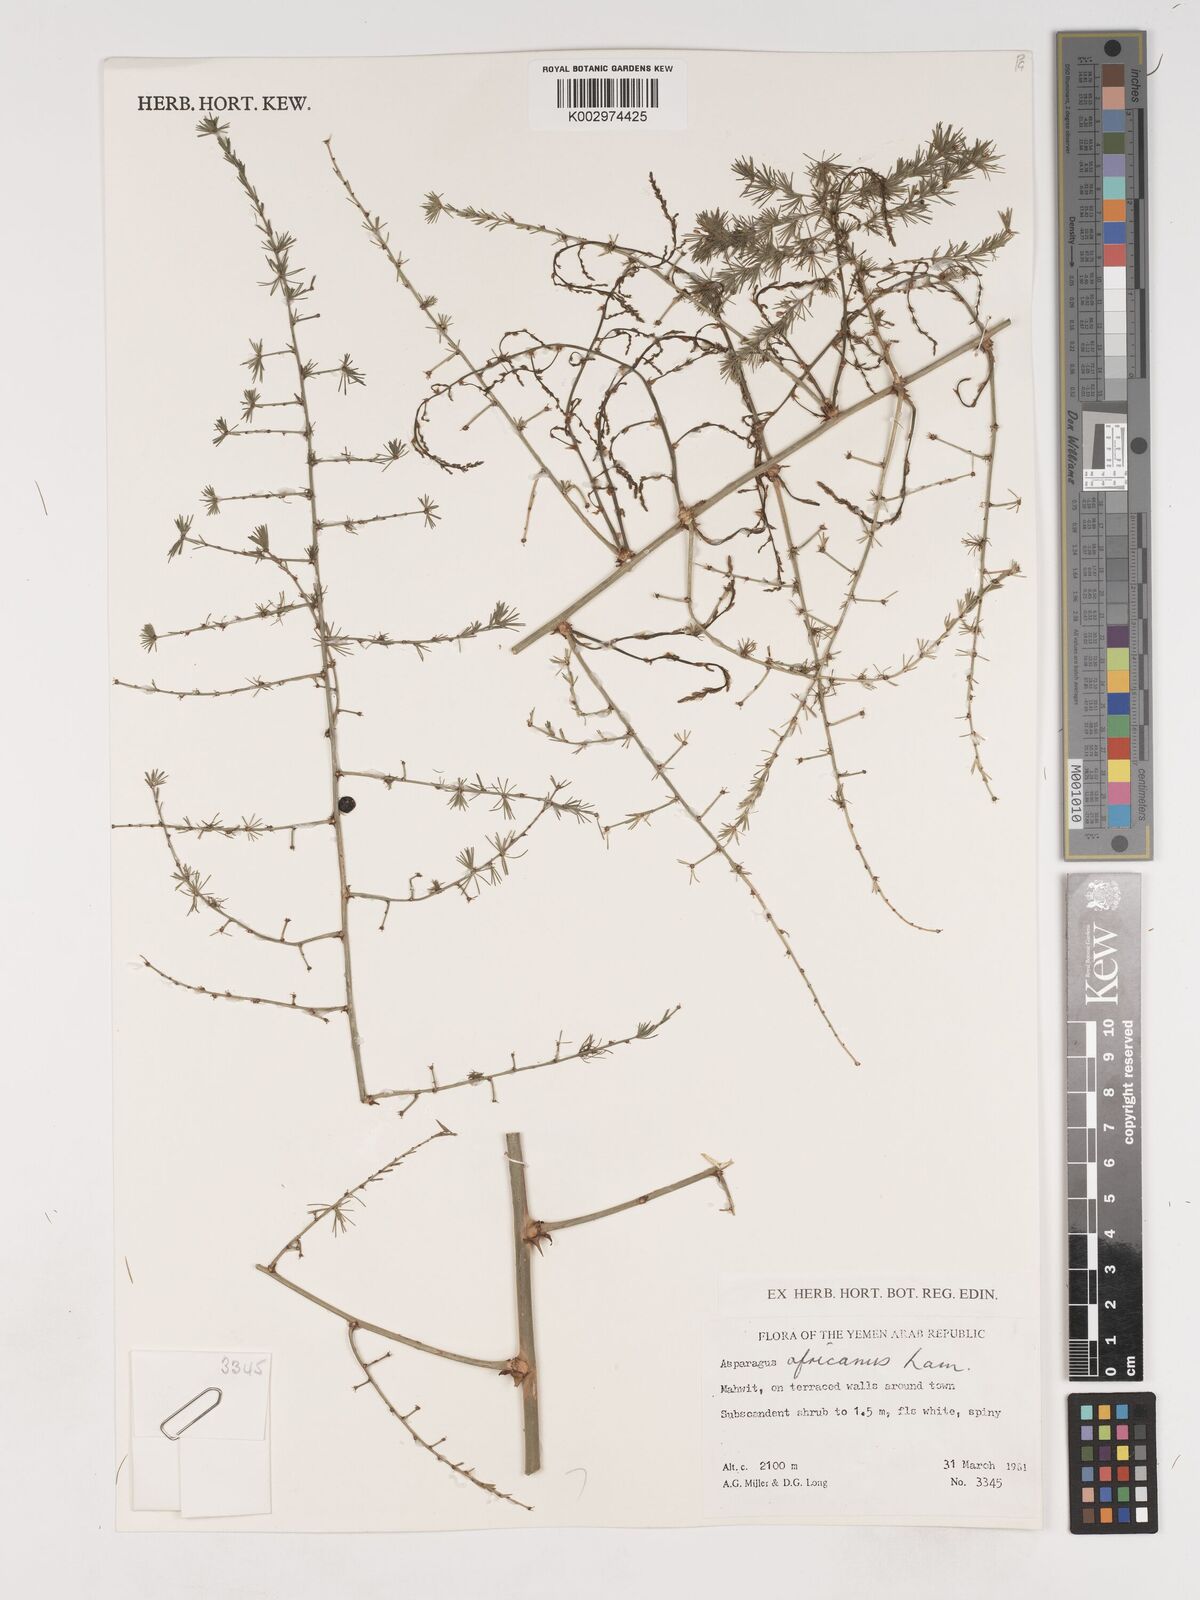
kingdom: Plantae
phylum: Tracheophyta
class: Liliopsida
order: Asparagales
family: Asparagaceae
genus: Asparagus
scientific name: Asparagus africanus
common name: Asparagus-fern
